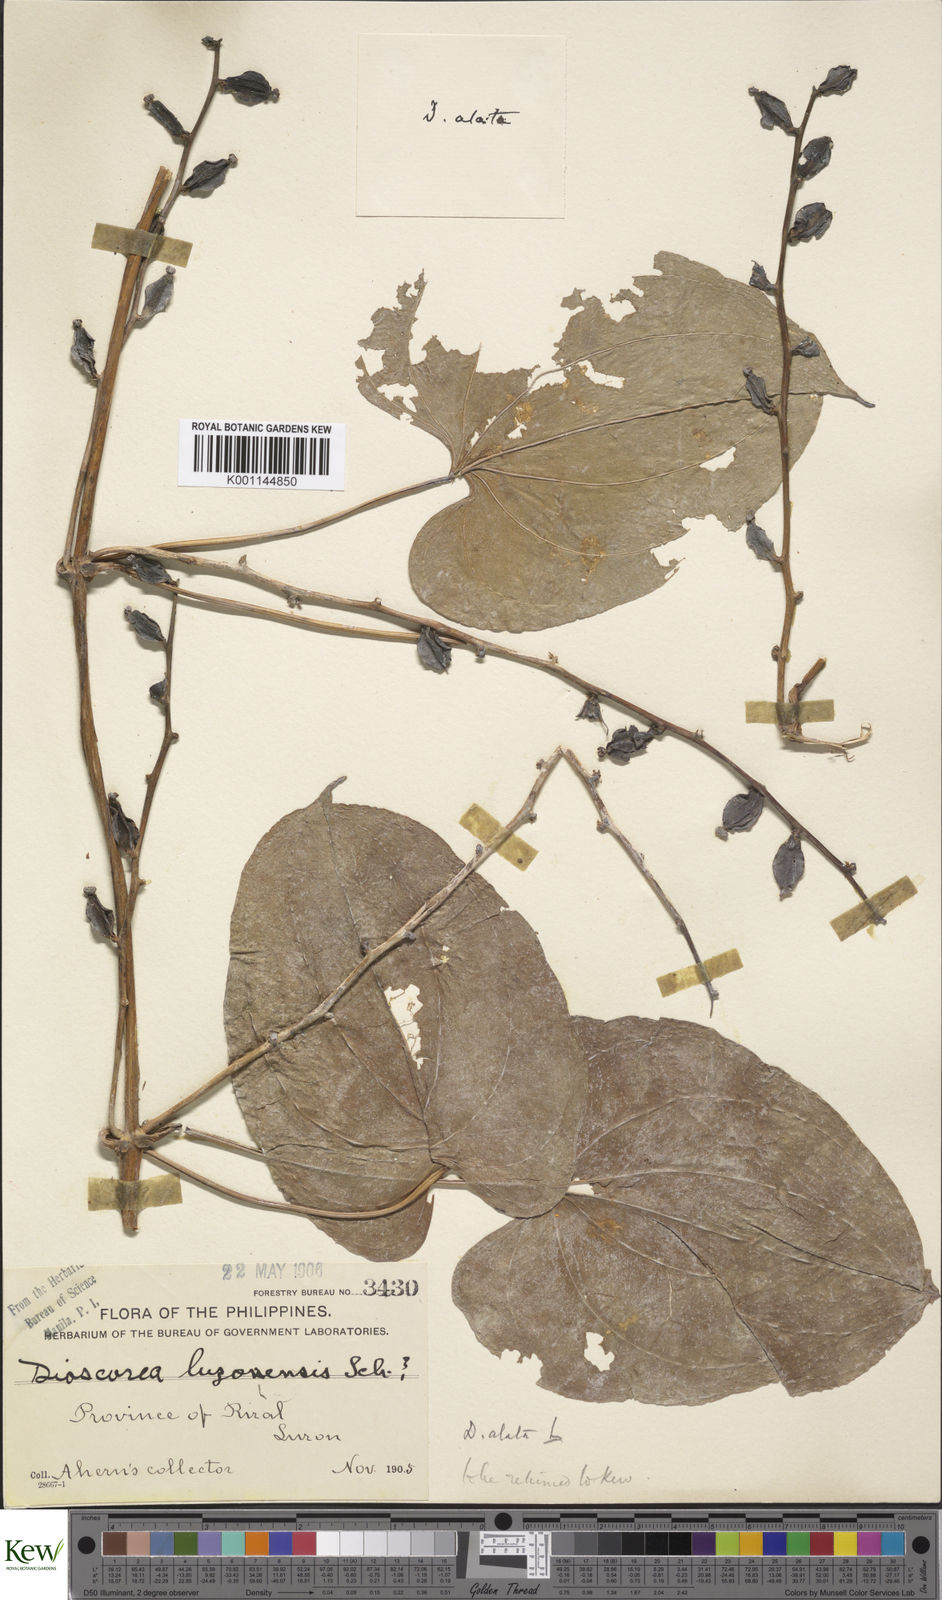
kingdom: Plantae
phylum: Tracheophyta
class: Liliopsida
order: Dioscoreales
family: Dioscoreaceae
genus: Dioscorea
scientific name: Dioscorea alata
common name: Water yam
